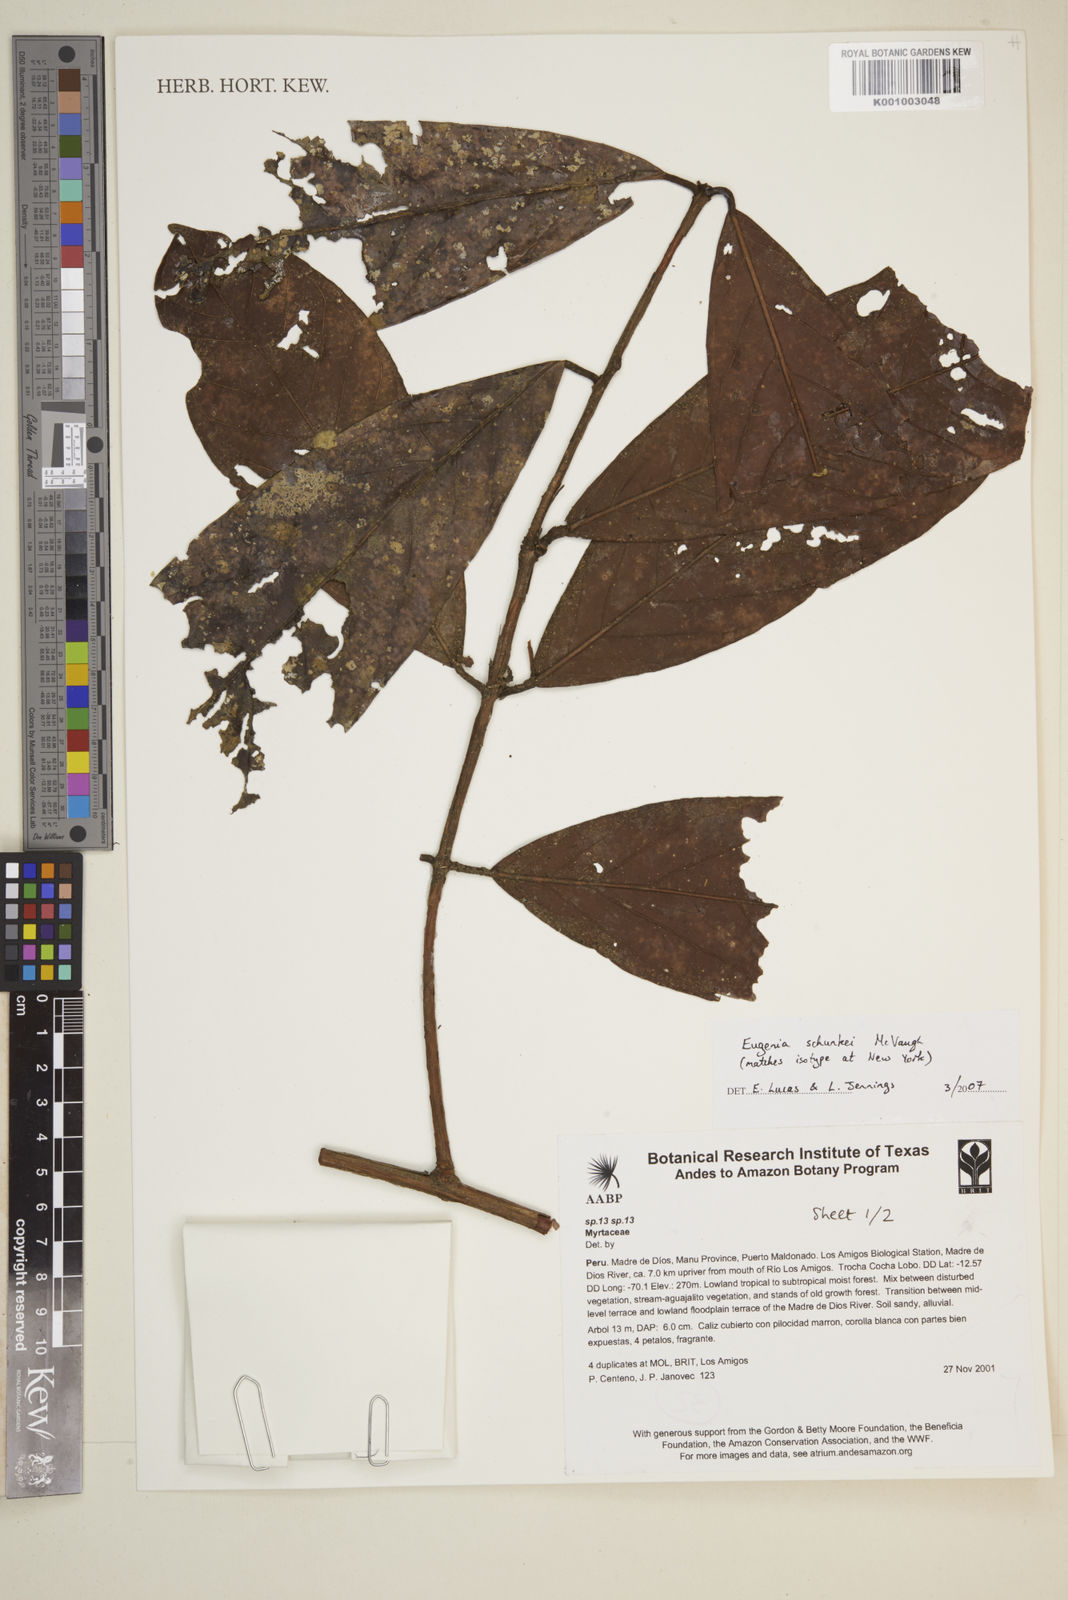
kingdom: Plantae
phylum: Tracheophyta
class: Magnoliopsida
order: Myrtales
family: Myrtaceae
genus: Eugenia
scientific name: Eugenia schunkei
